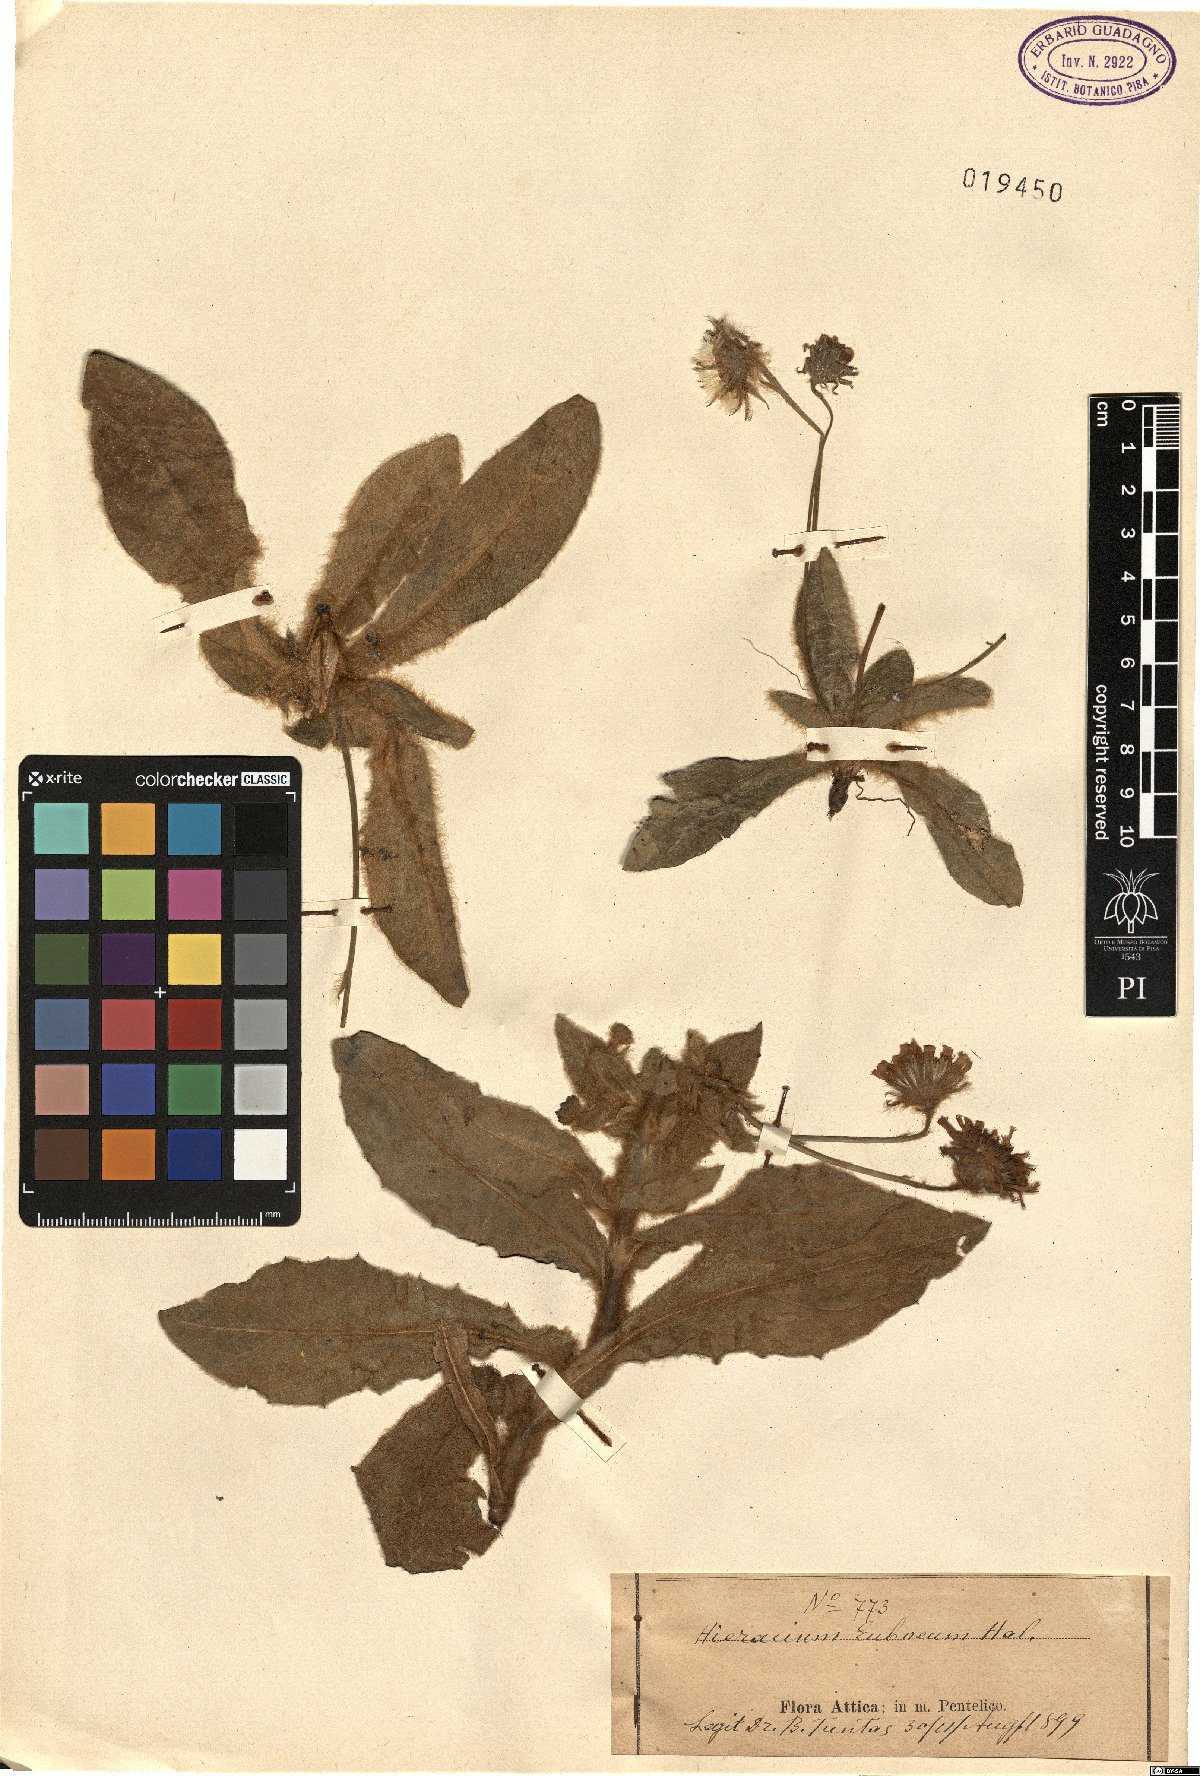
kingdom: Plantae
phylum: Tracheophyta
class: Magnoliopsida
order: Asterales
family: Asteraceae
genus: Hieracium
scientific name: Hieracium pannosum
